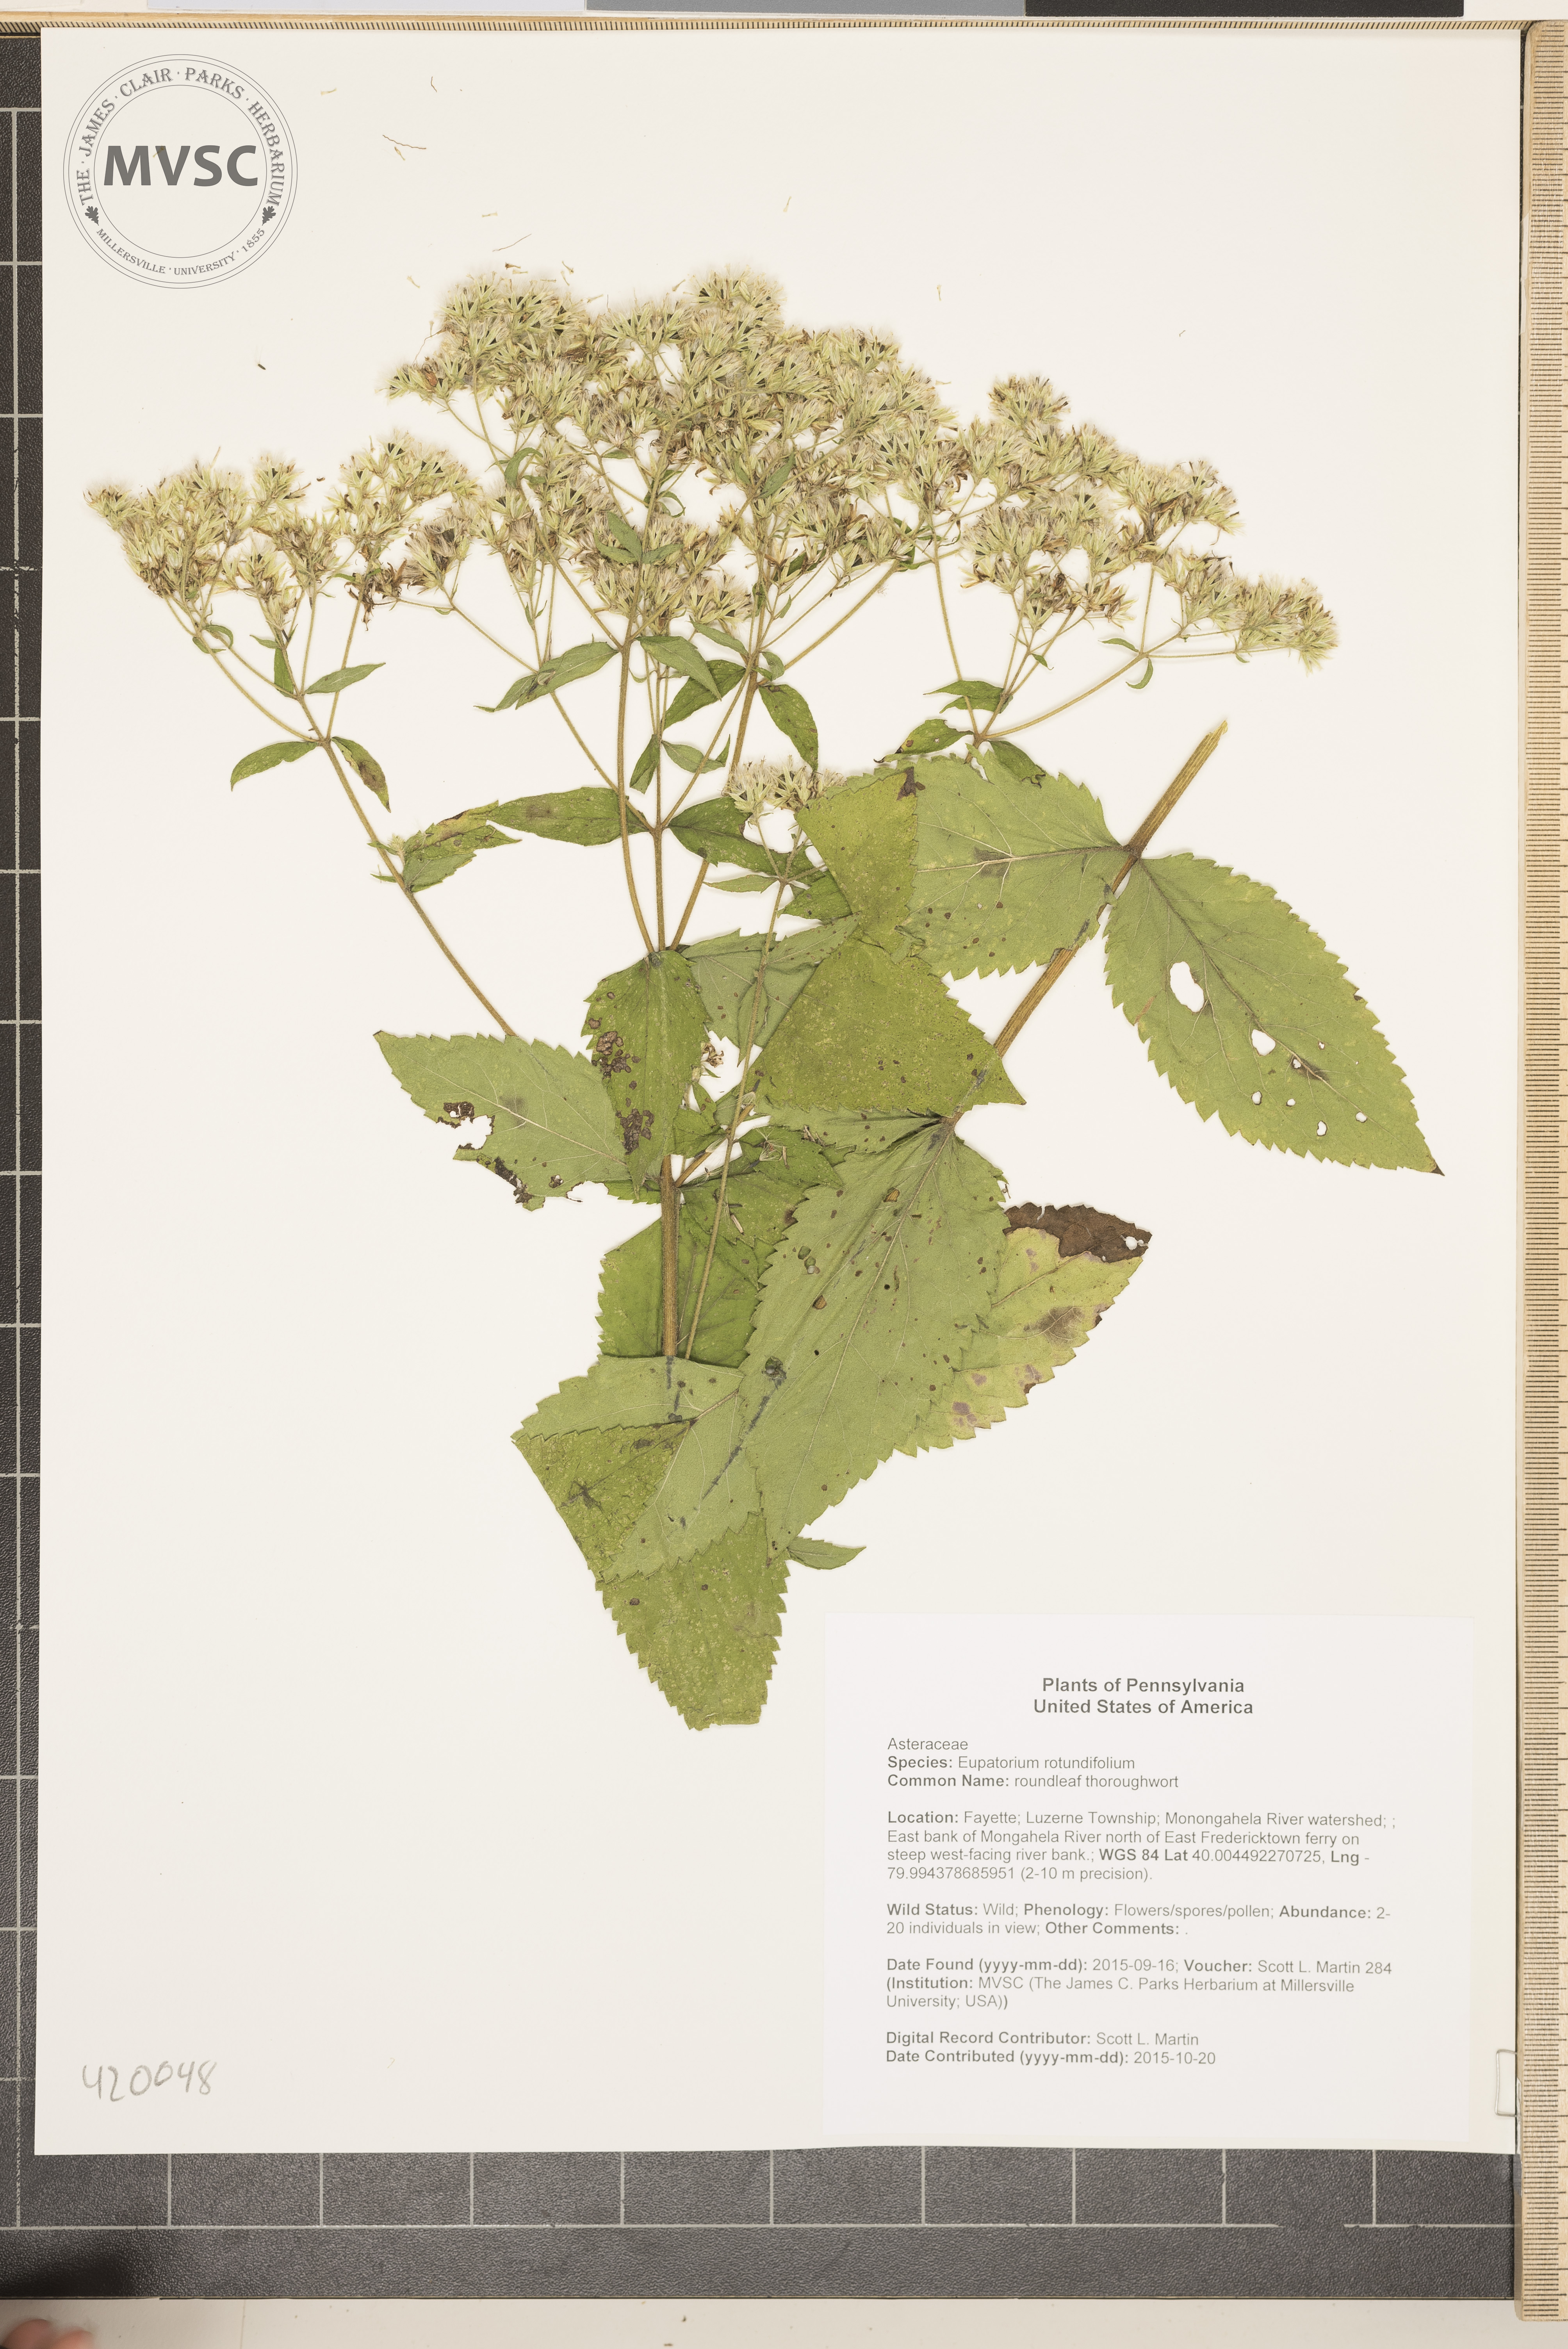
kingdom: Plantae
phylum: Tracheophyta
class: Magnoliopsida
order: Asterales
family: Asteraceae
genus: Eupatorium
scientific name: Eupatorium rotundifolium
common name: roundleaf thoroughwort
